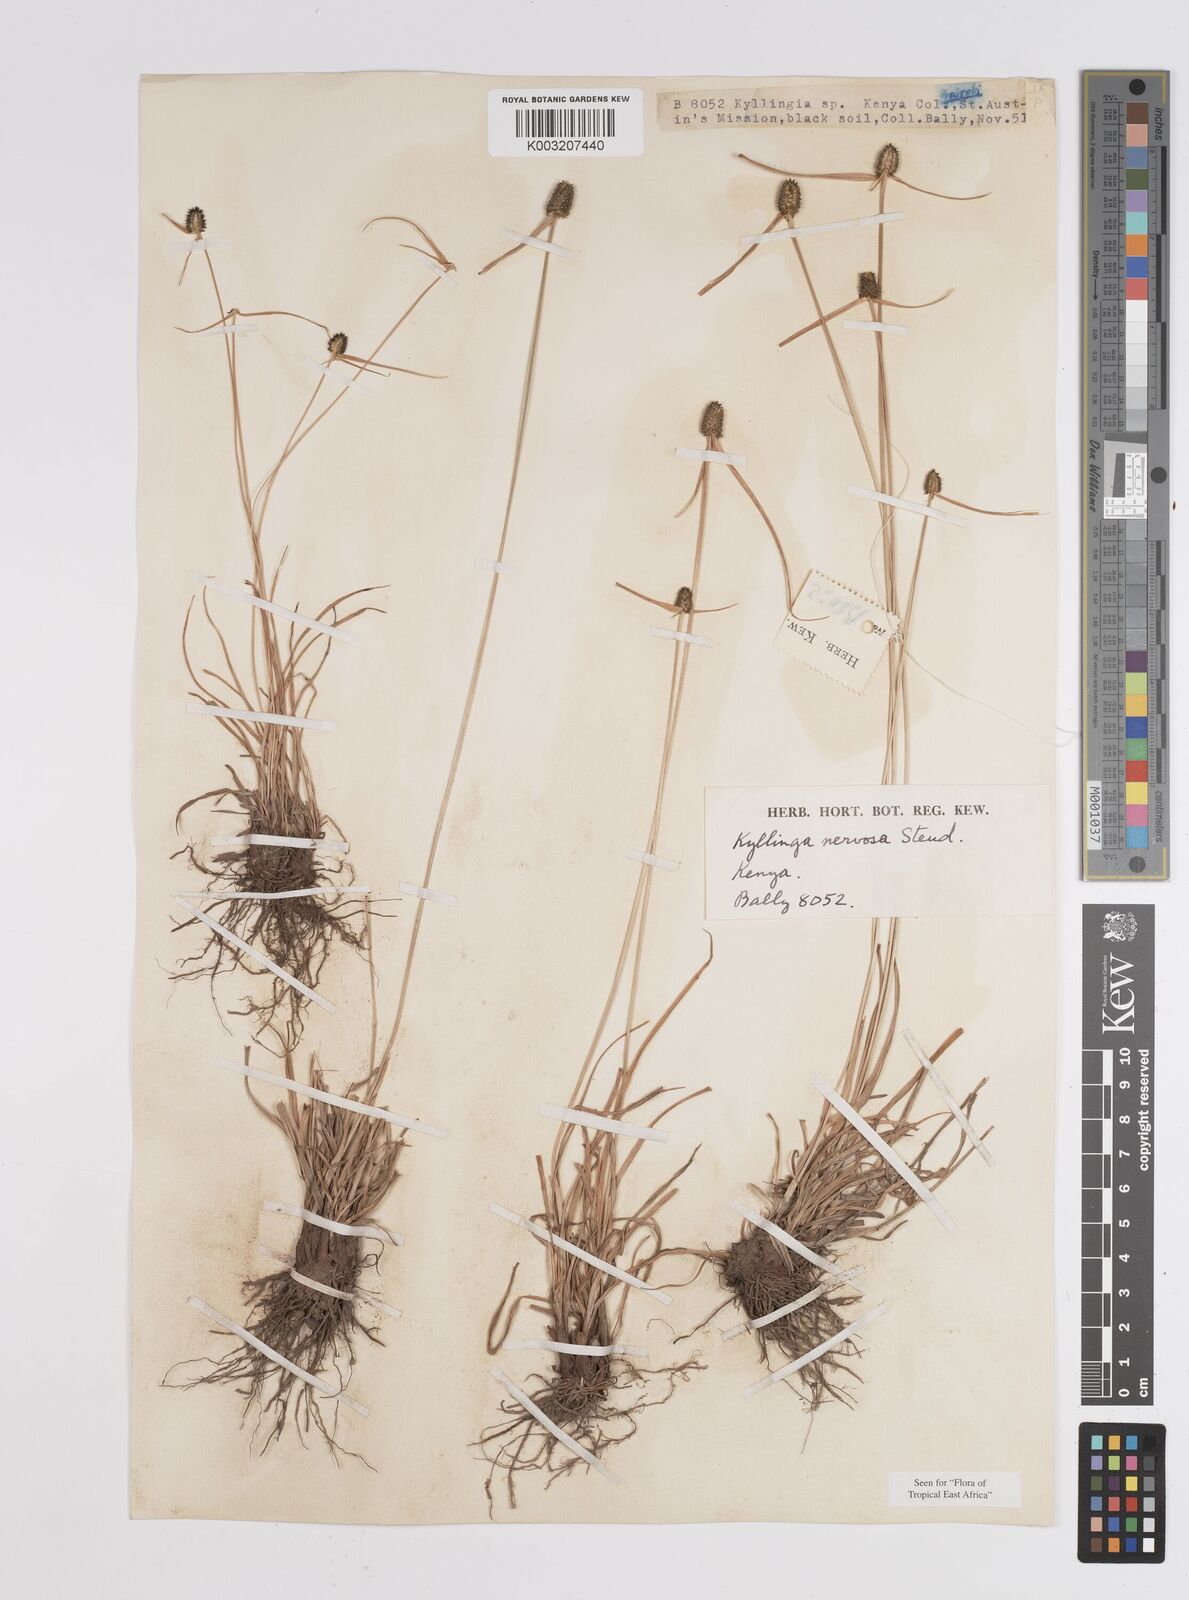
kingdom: Plantae
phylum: Tracheophyta
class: Liliopsida
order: Poales
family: Cyperaceae
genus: Cyperus
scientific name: Cyperus
